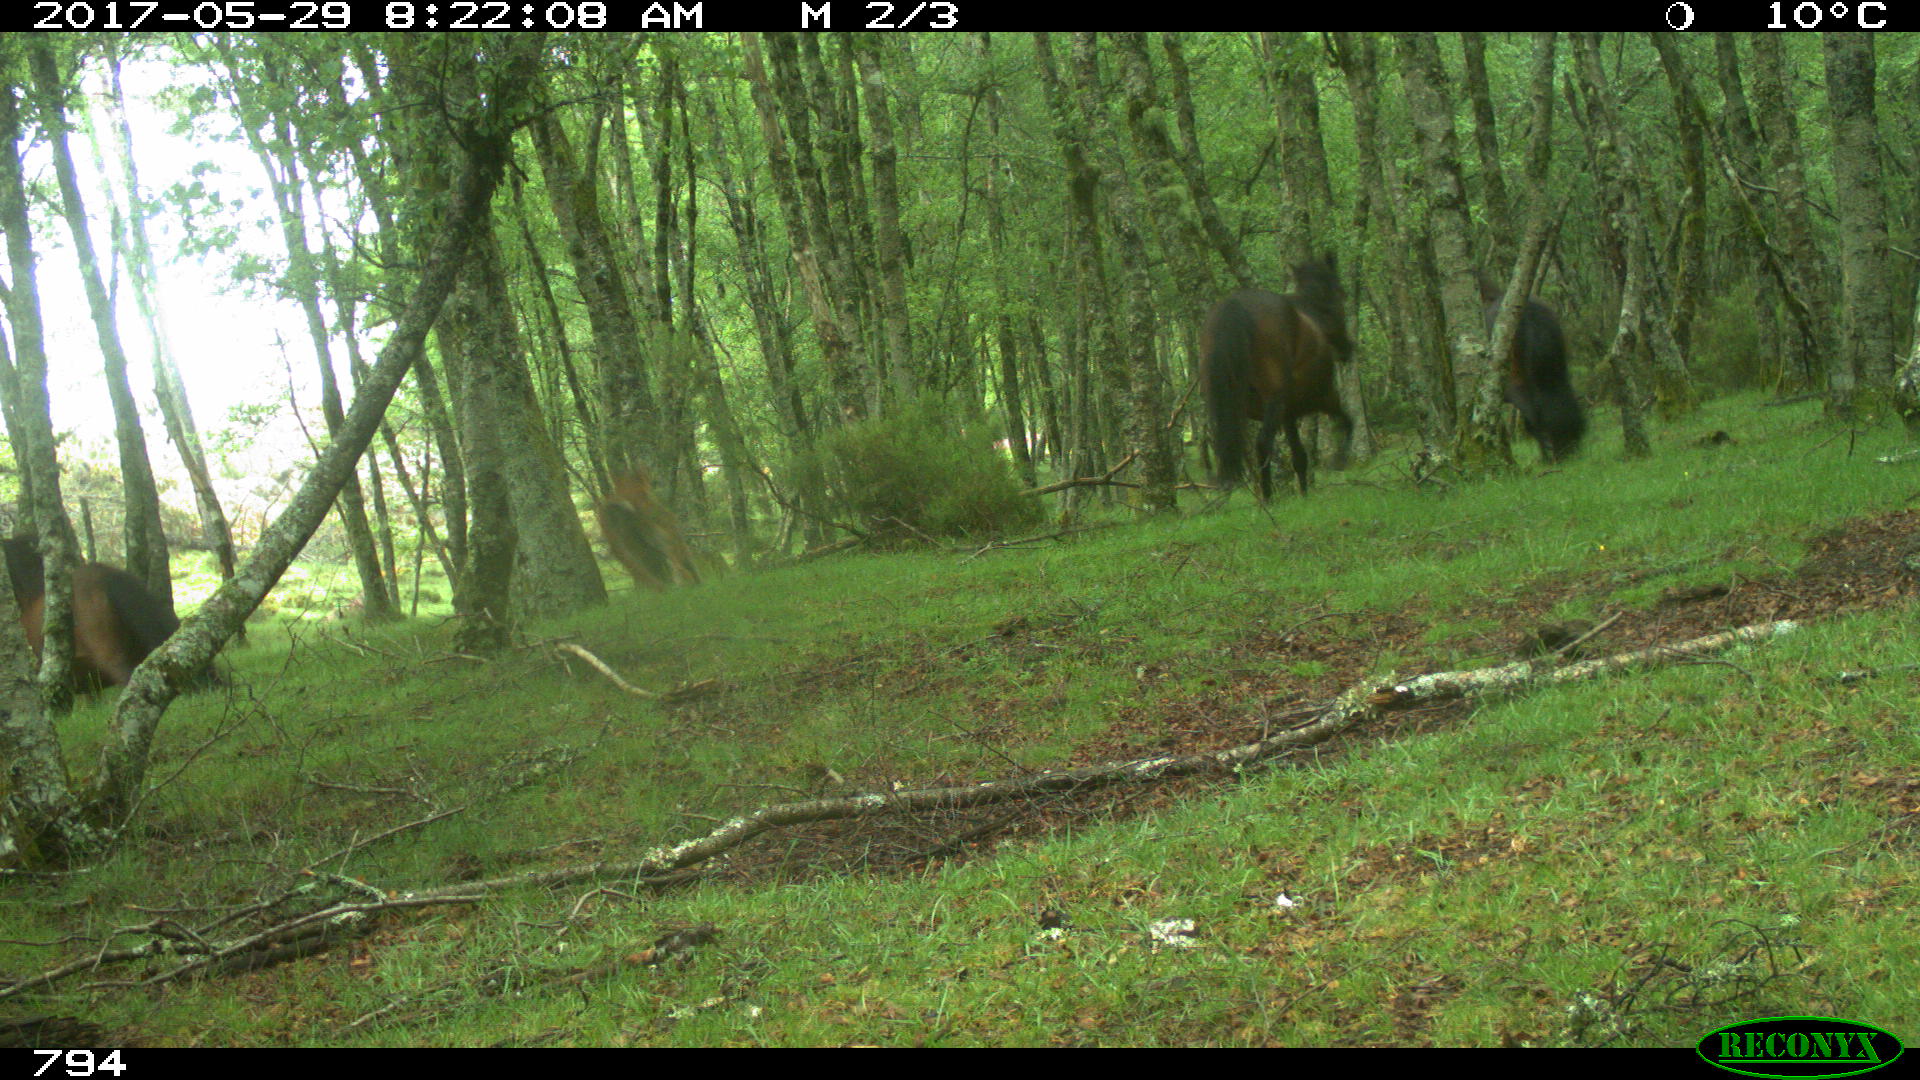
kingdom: Animalia
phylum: Chordata
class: Mammalia
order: Perissodactyla
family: Equidae
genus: Equus
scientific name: Equus caballus
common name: Horse
